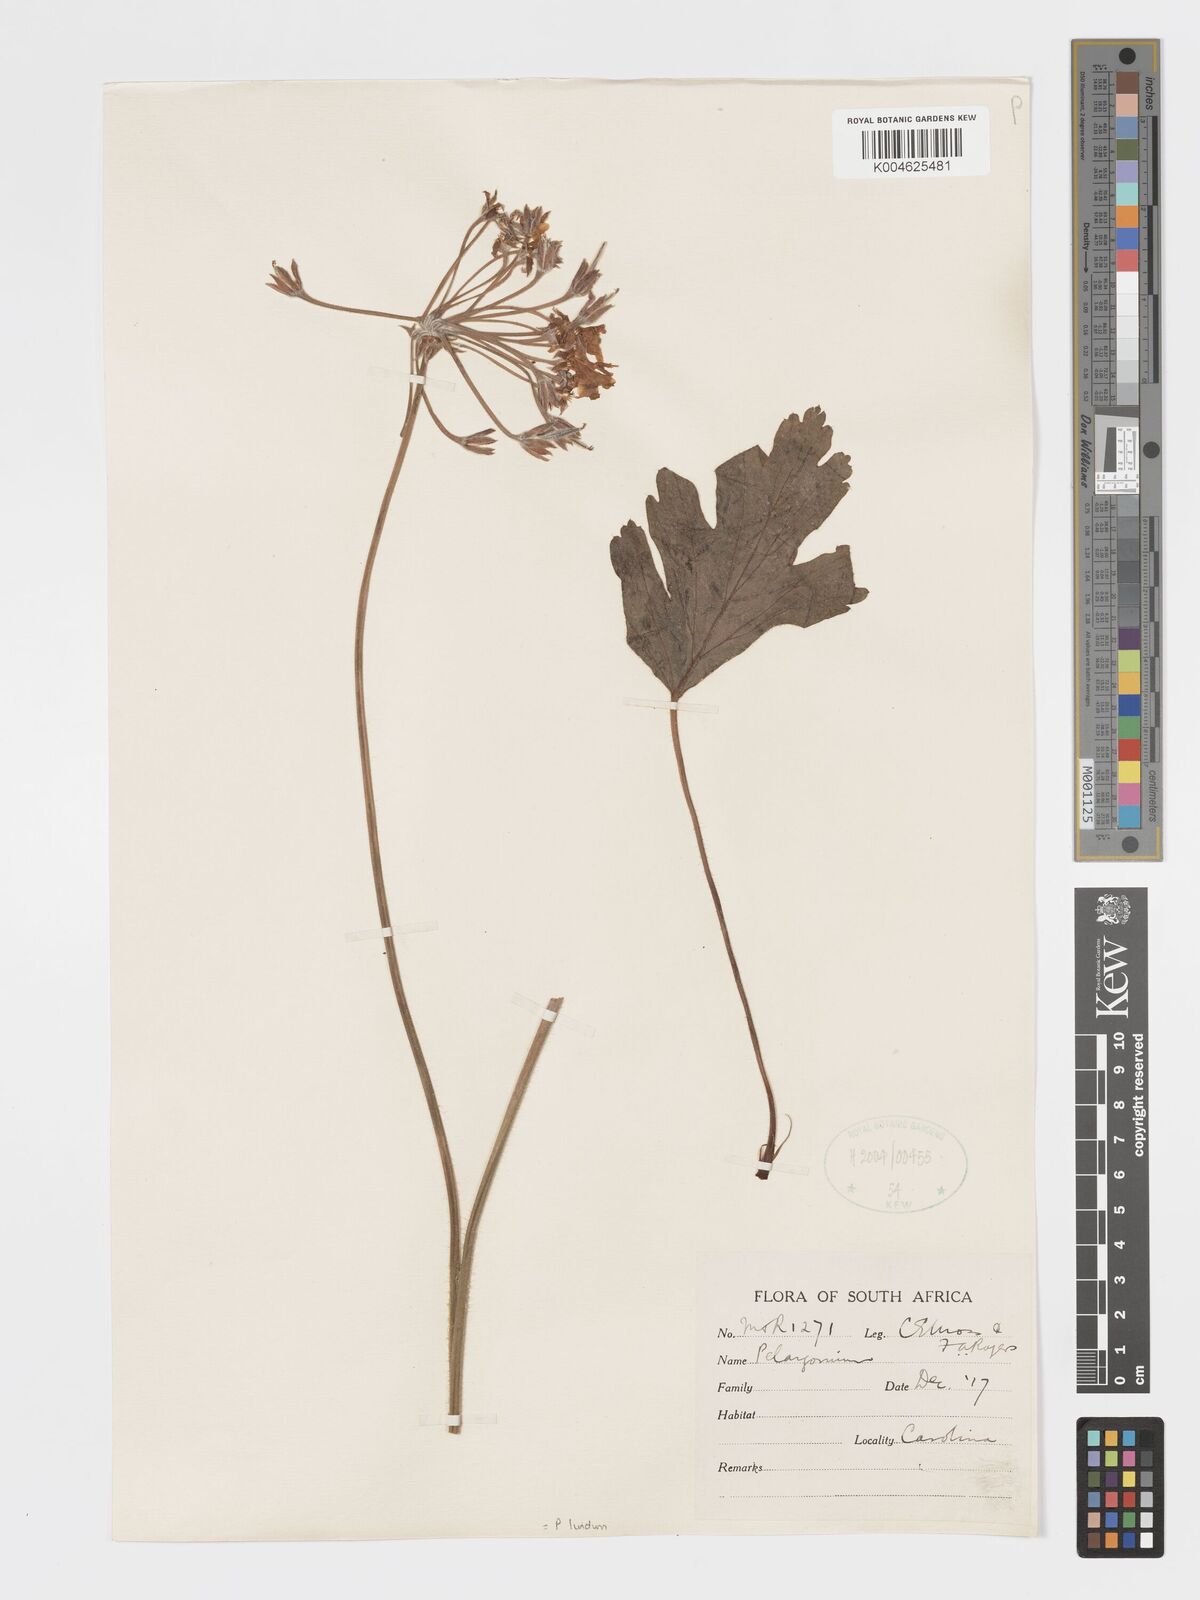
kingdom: Plantae
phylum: Tracheophyta
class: Magnoliopsida
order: Geraniales
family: Geraniaceae
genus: Pelargonium
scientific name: Pelargonium luridum
